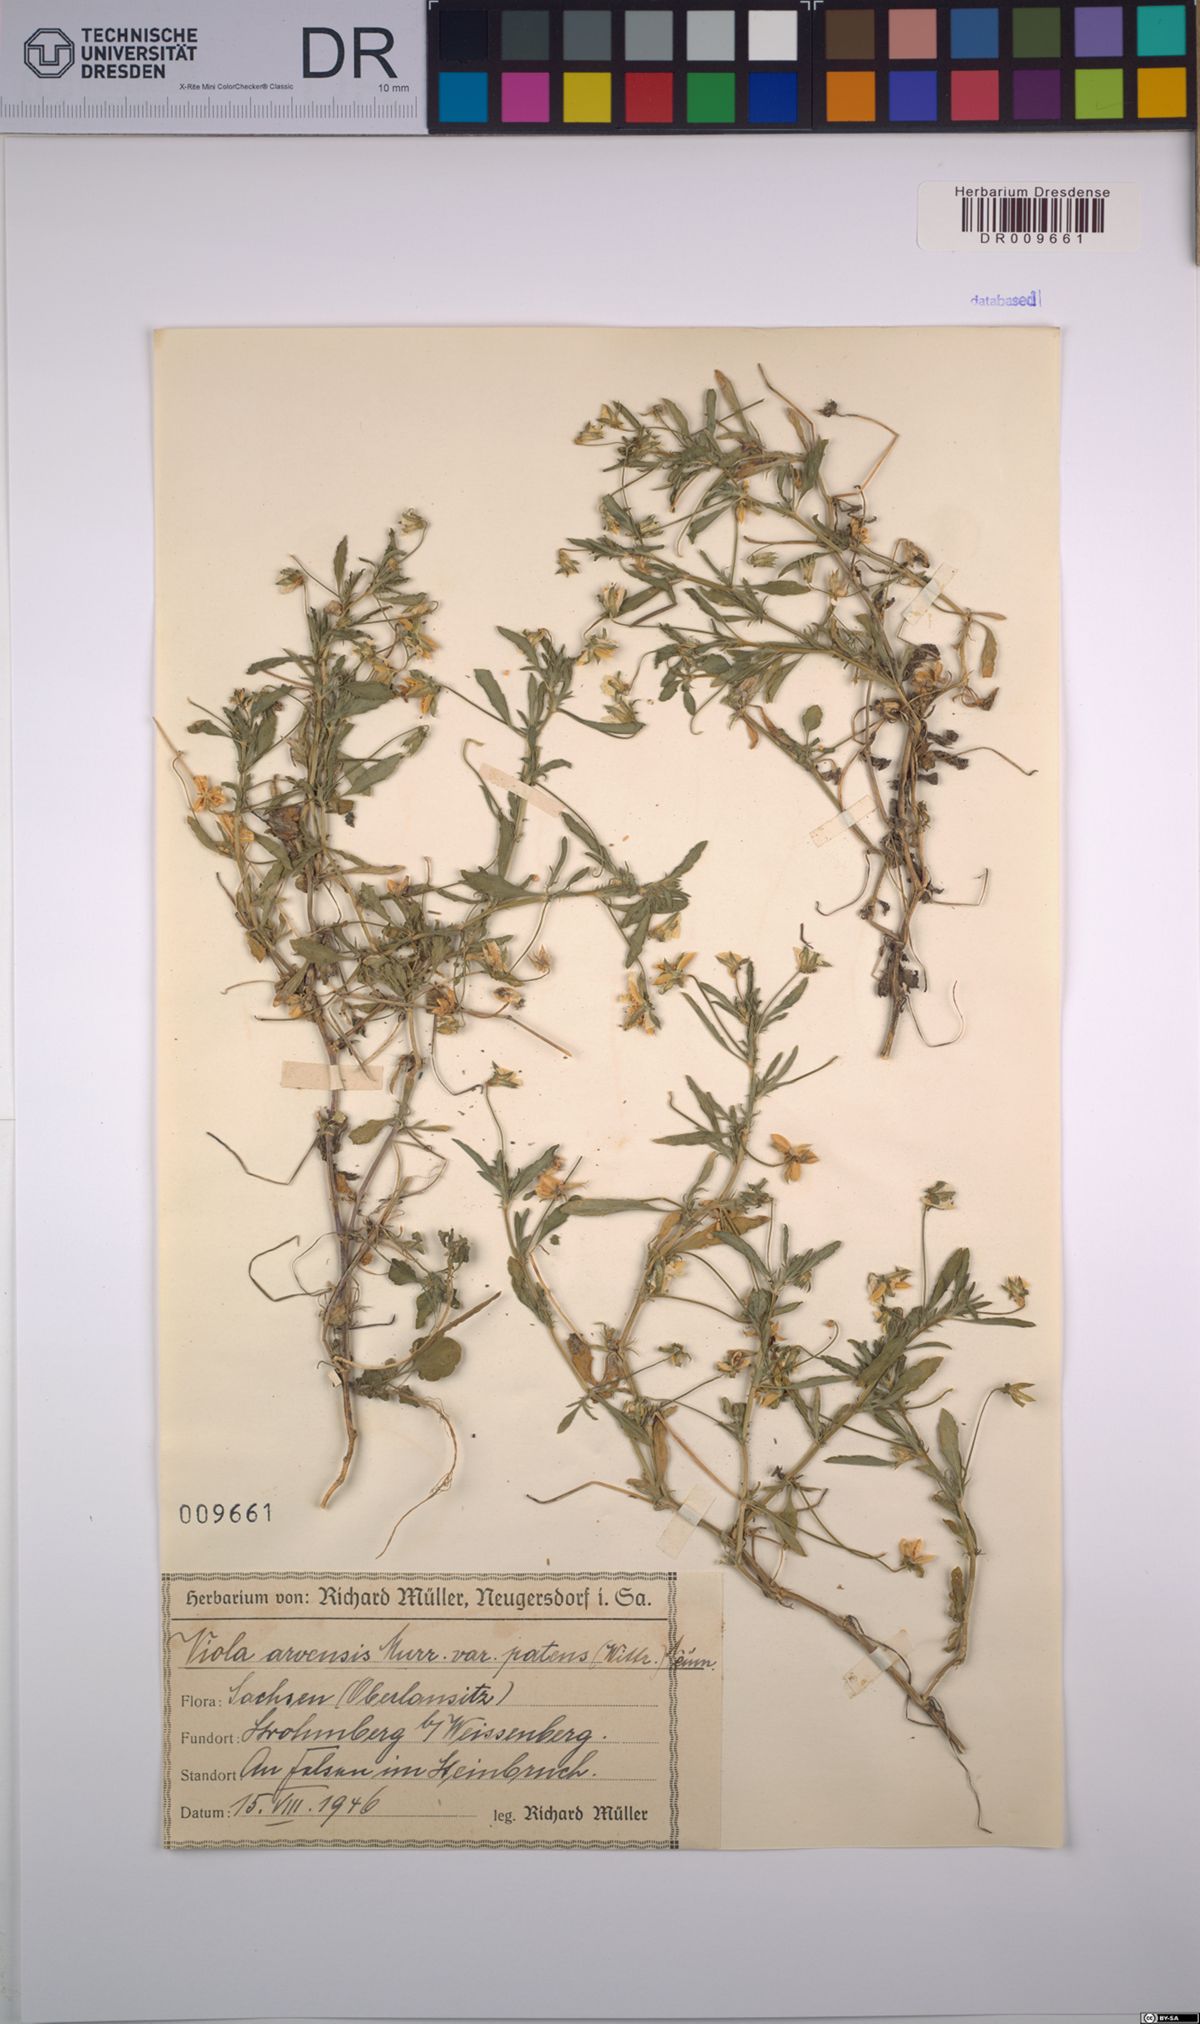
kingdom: Plantae
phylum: Tracheophyta
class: Magnoliopsida
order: Malpighiales
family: Violaceae
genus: Viola
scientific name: Viola arvensis
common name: Field pansy
